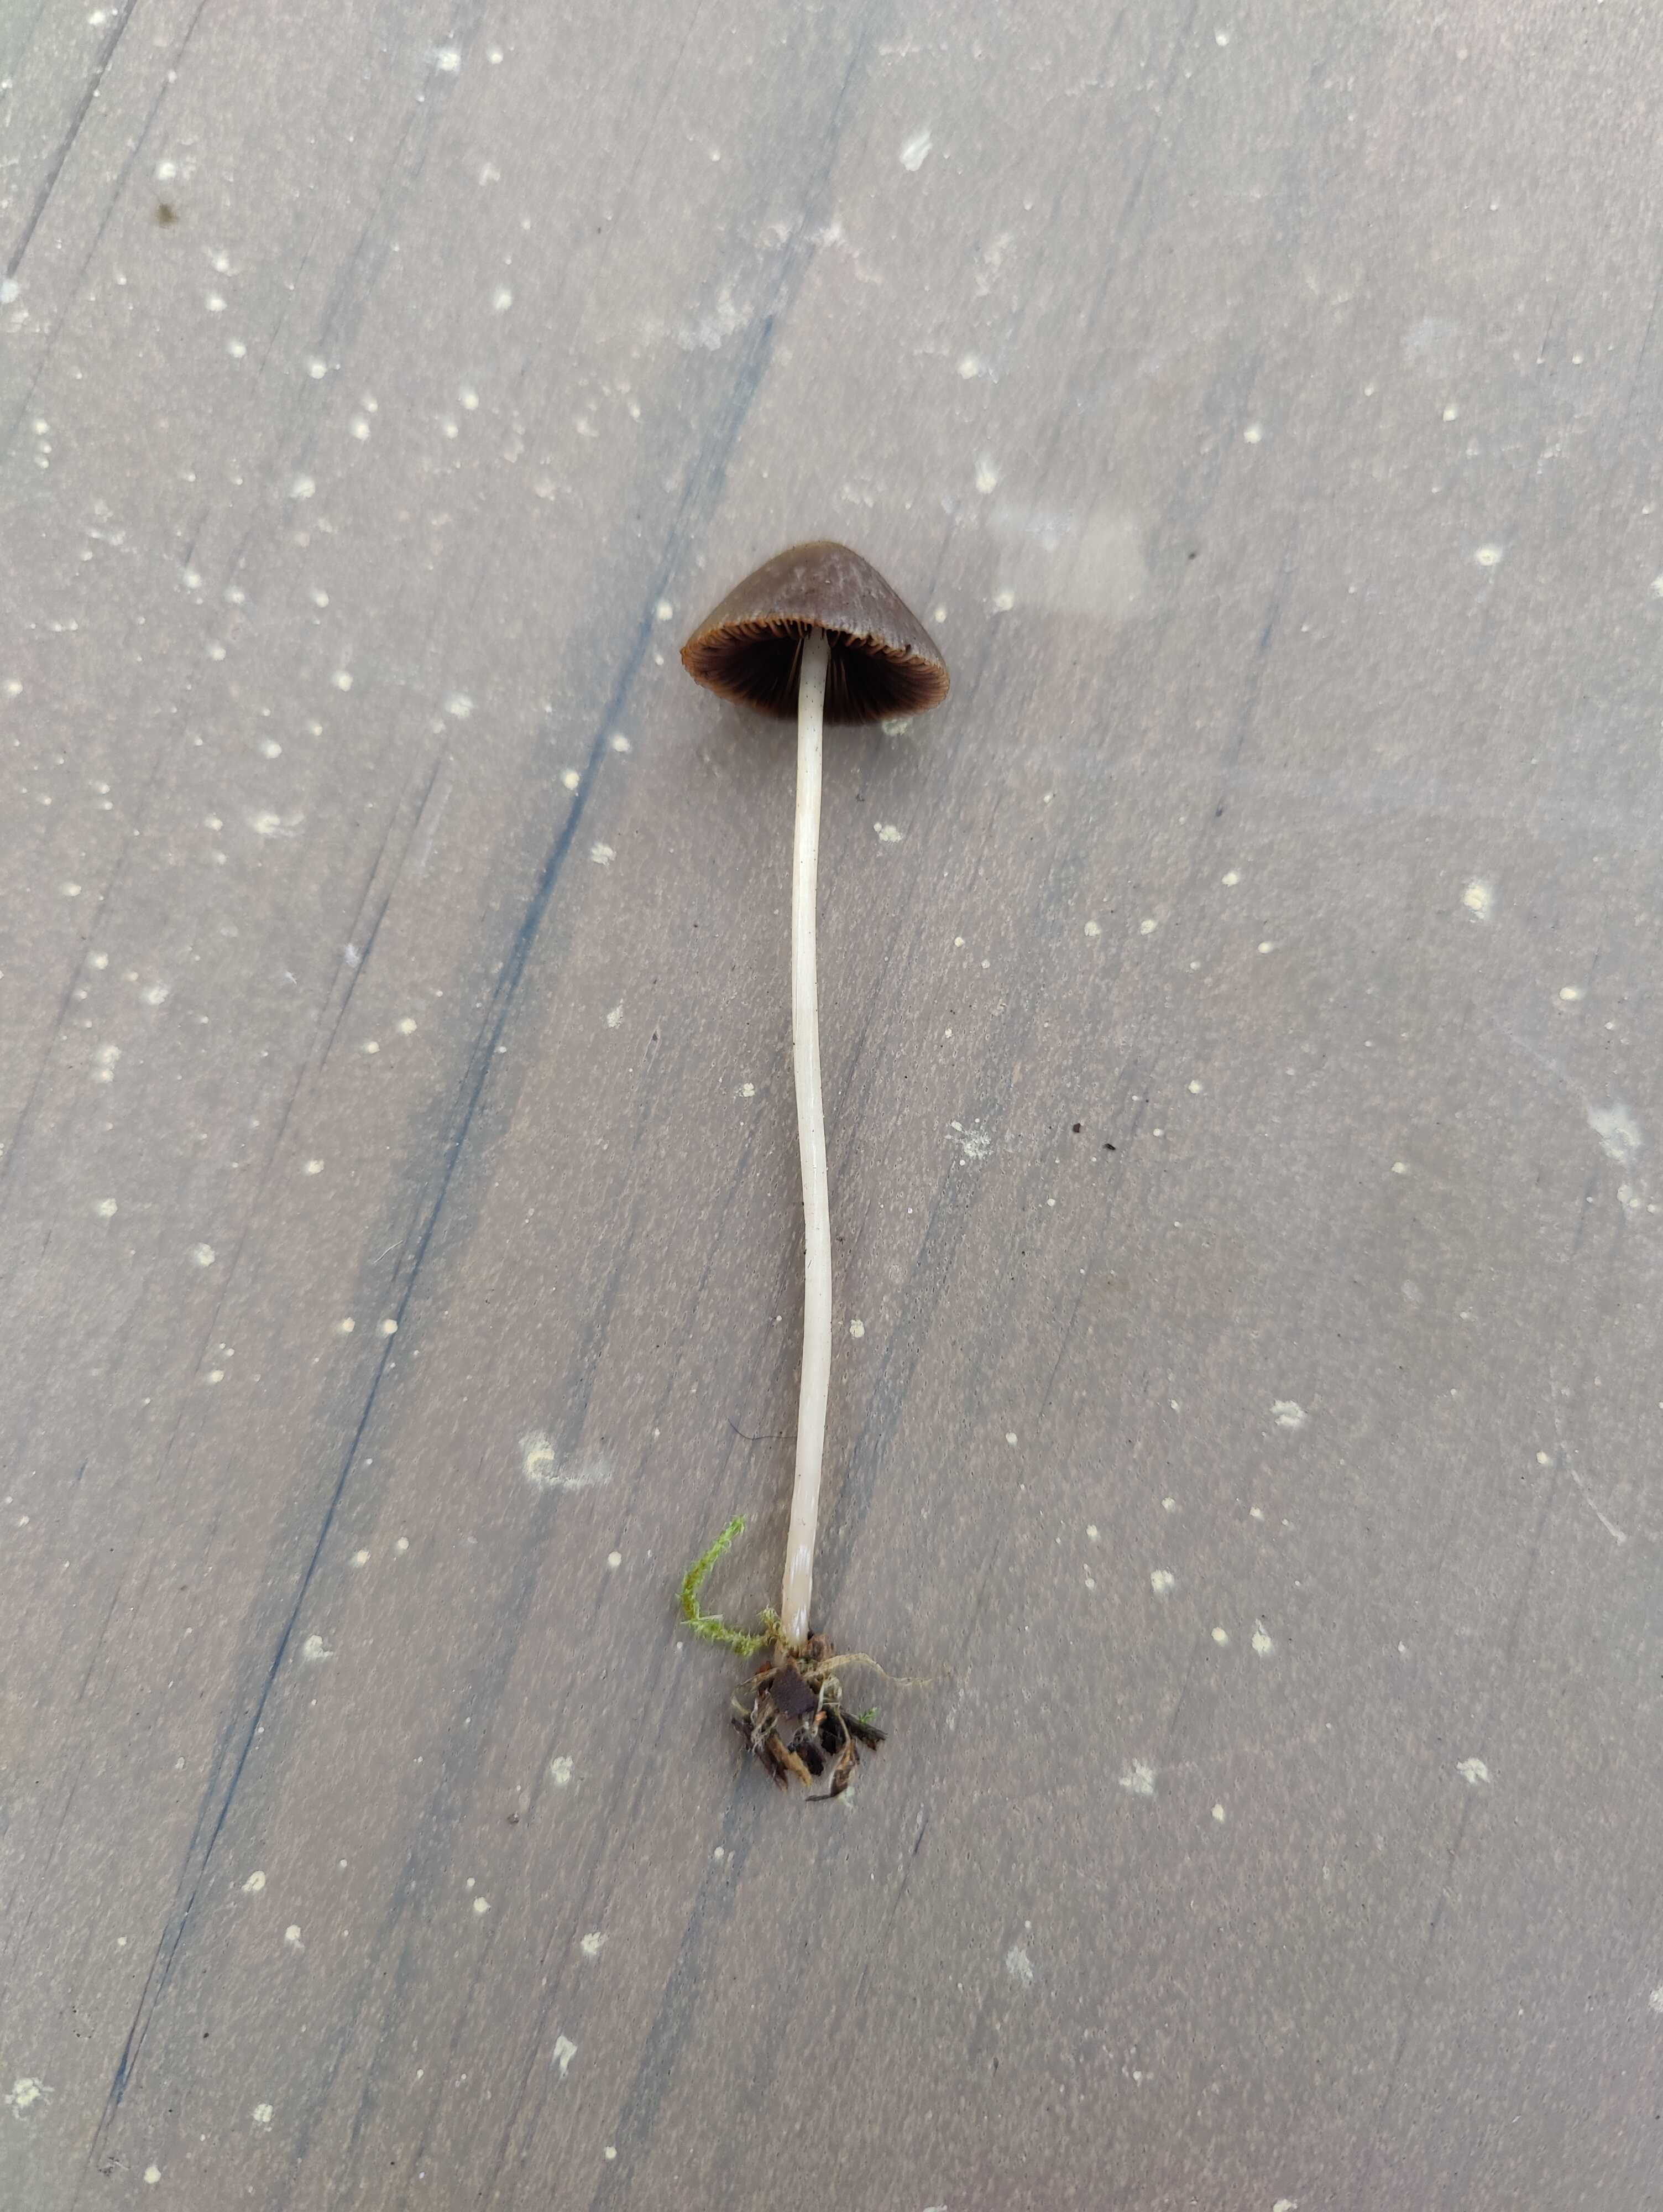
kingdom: Fungi
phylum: Basidiomycota
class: Agaricomycetes
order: Agaricales
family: Psathyrellaceae
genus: Psathyrella
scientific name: Psathyrella
